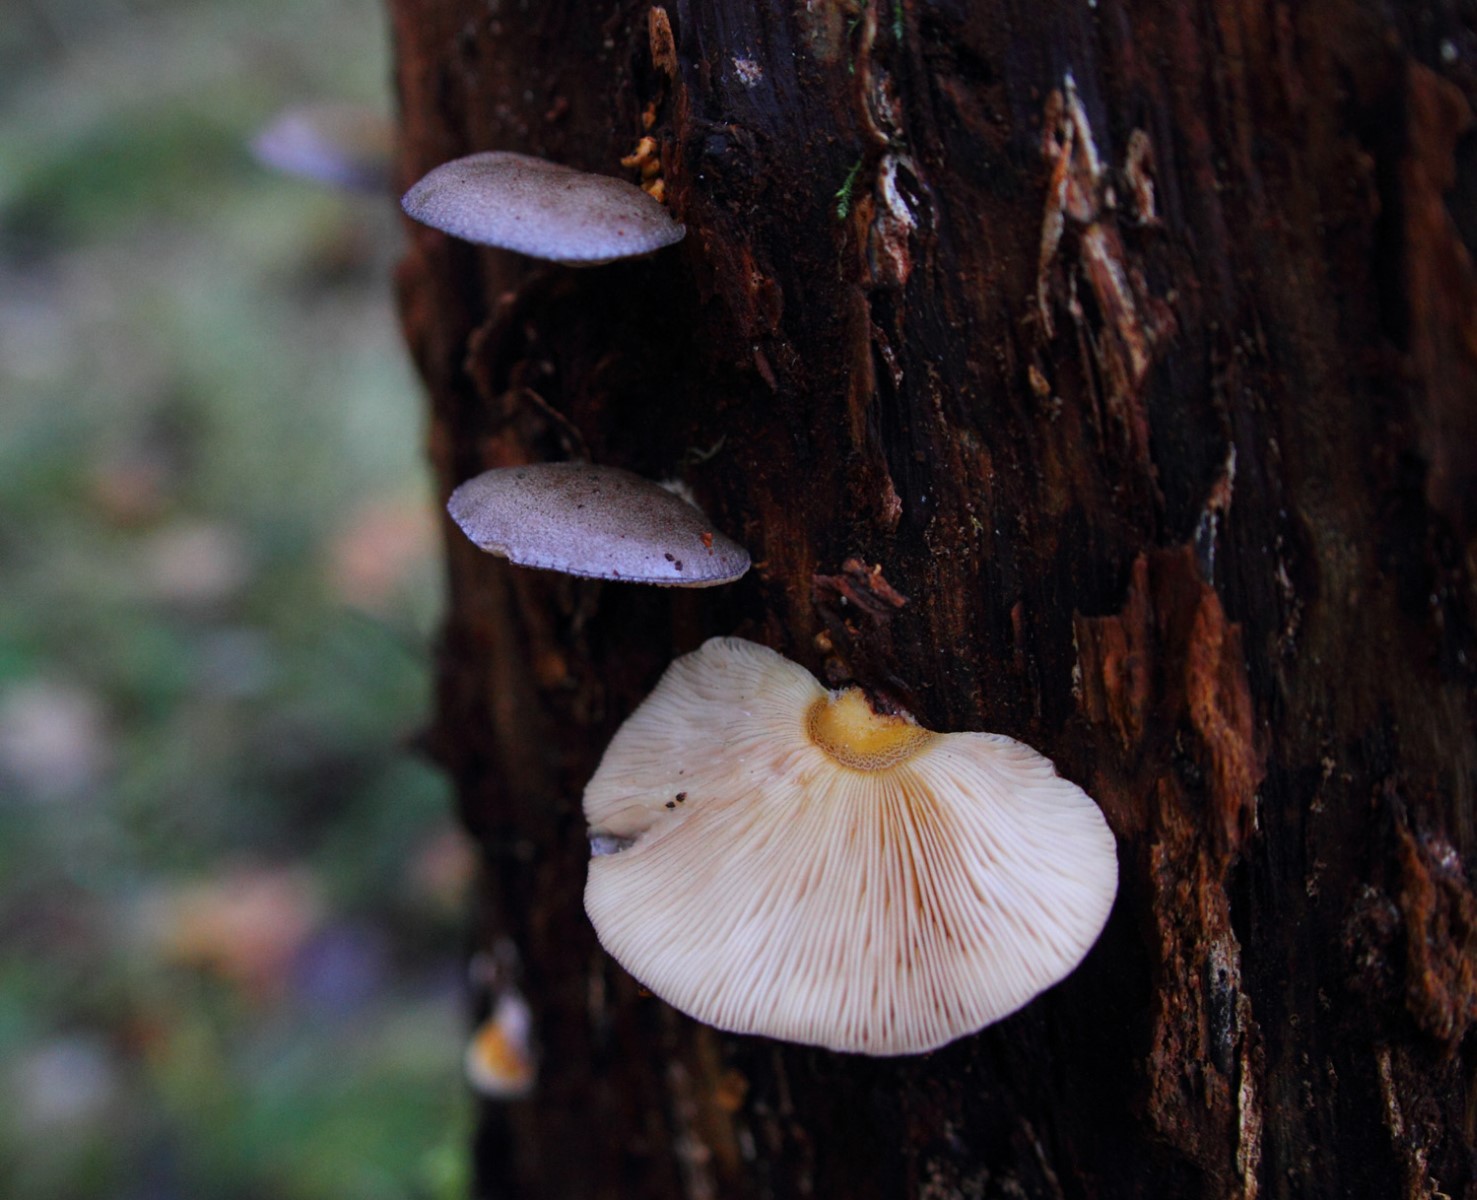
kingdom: Fungi
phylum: Basidiomycota
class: Agaricomycetes
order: Agaricales
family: Sarcomyxaceae
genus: Sarcomyxa
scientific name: Sarcomyxa serotina
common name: gummihat
